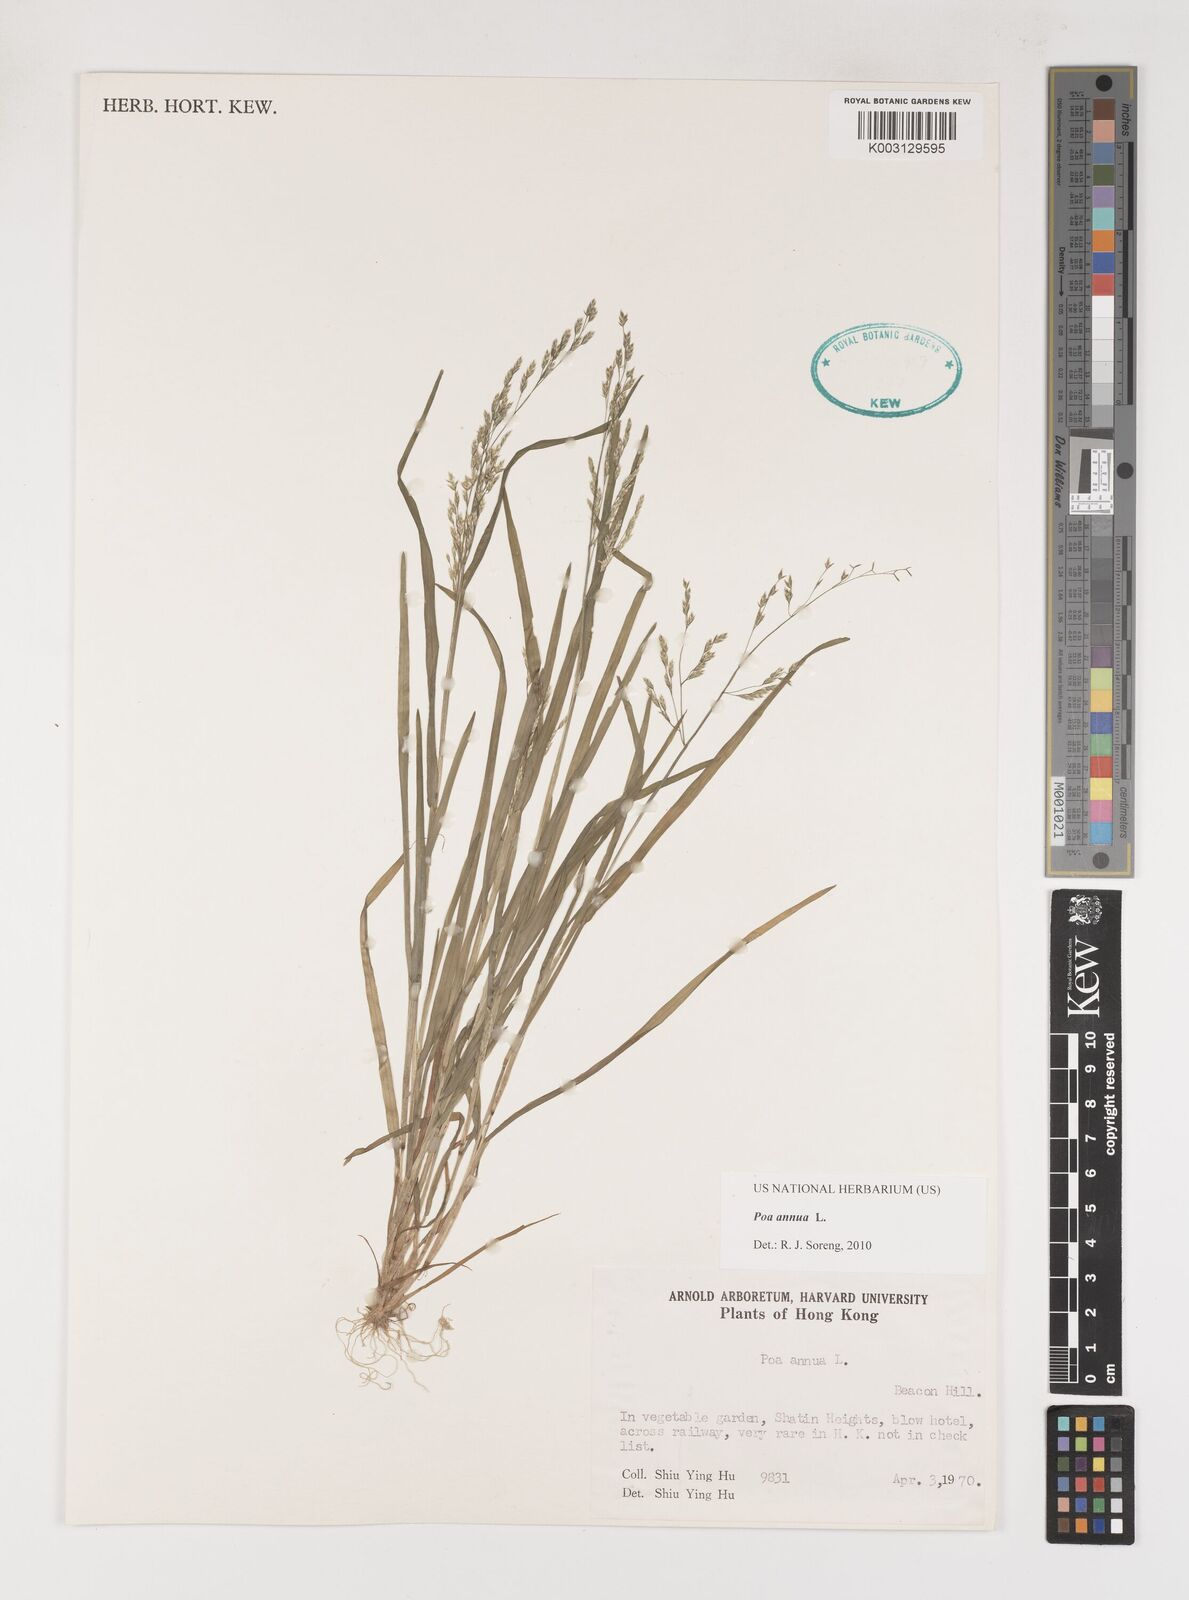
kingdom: Plantae
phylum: Tracheophyta
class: Liliopsida
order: Poales
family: Poaceae
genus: Poa
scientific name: Poa annua
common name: Annual bluegrass
